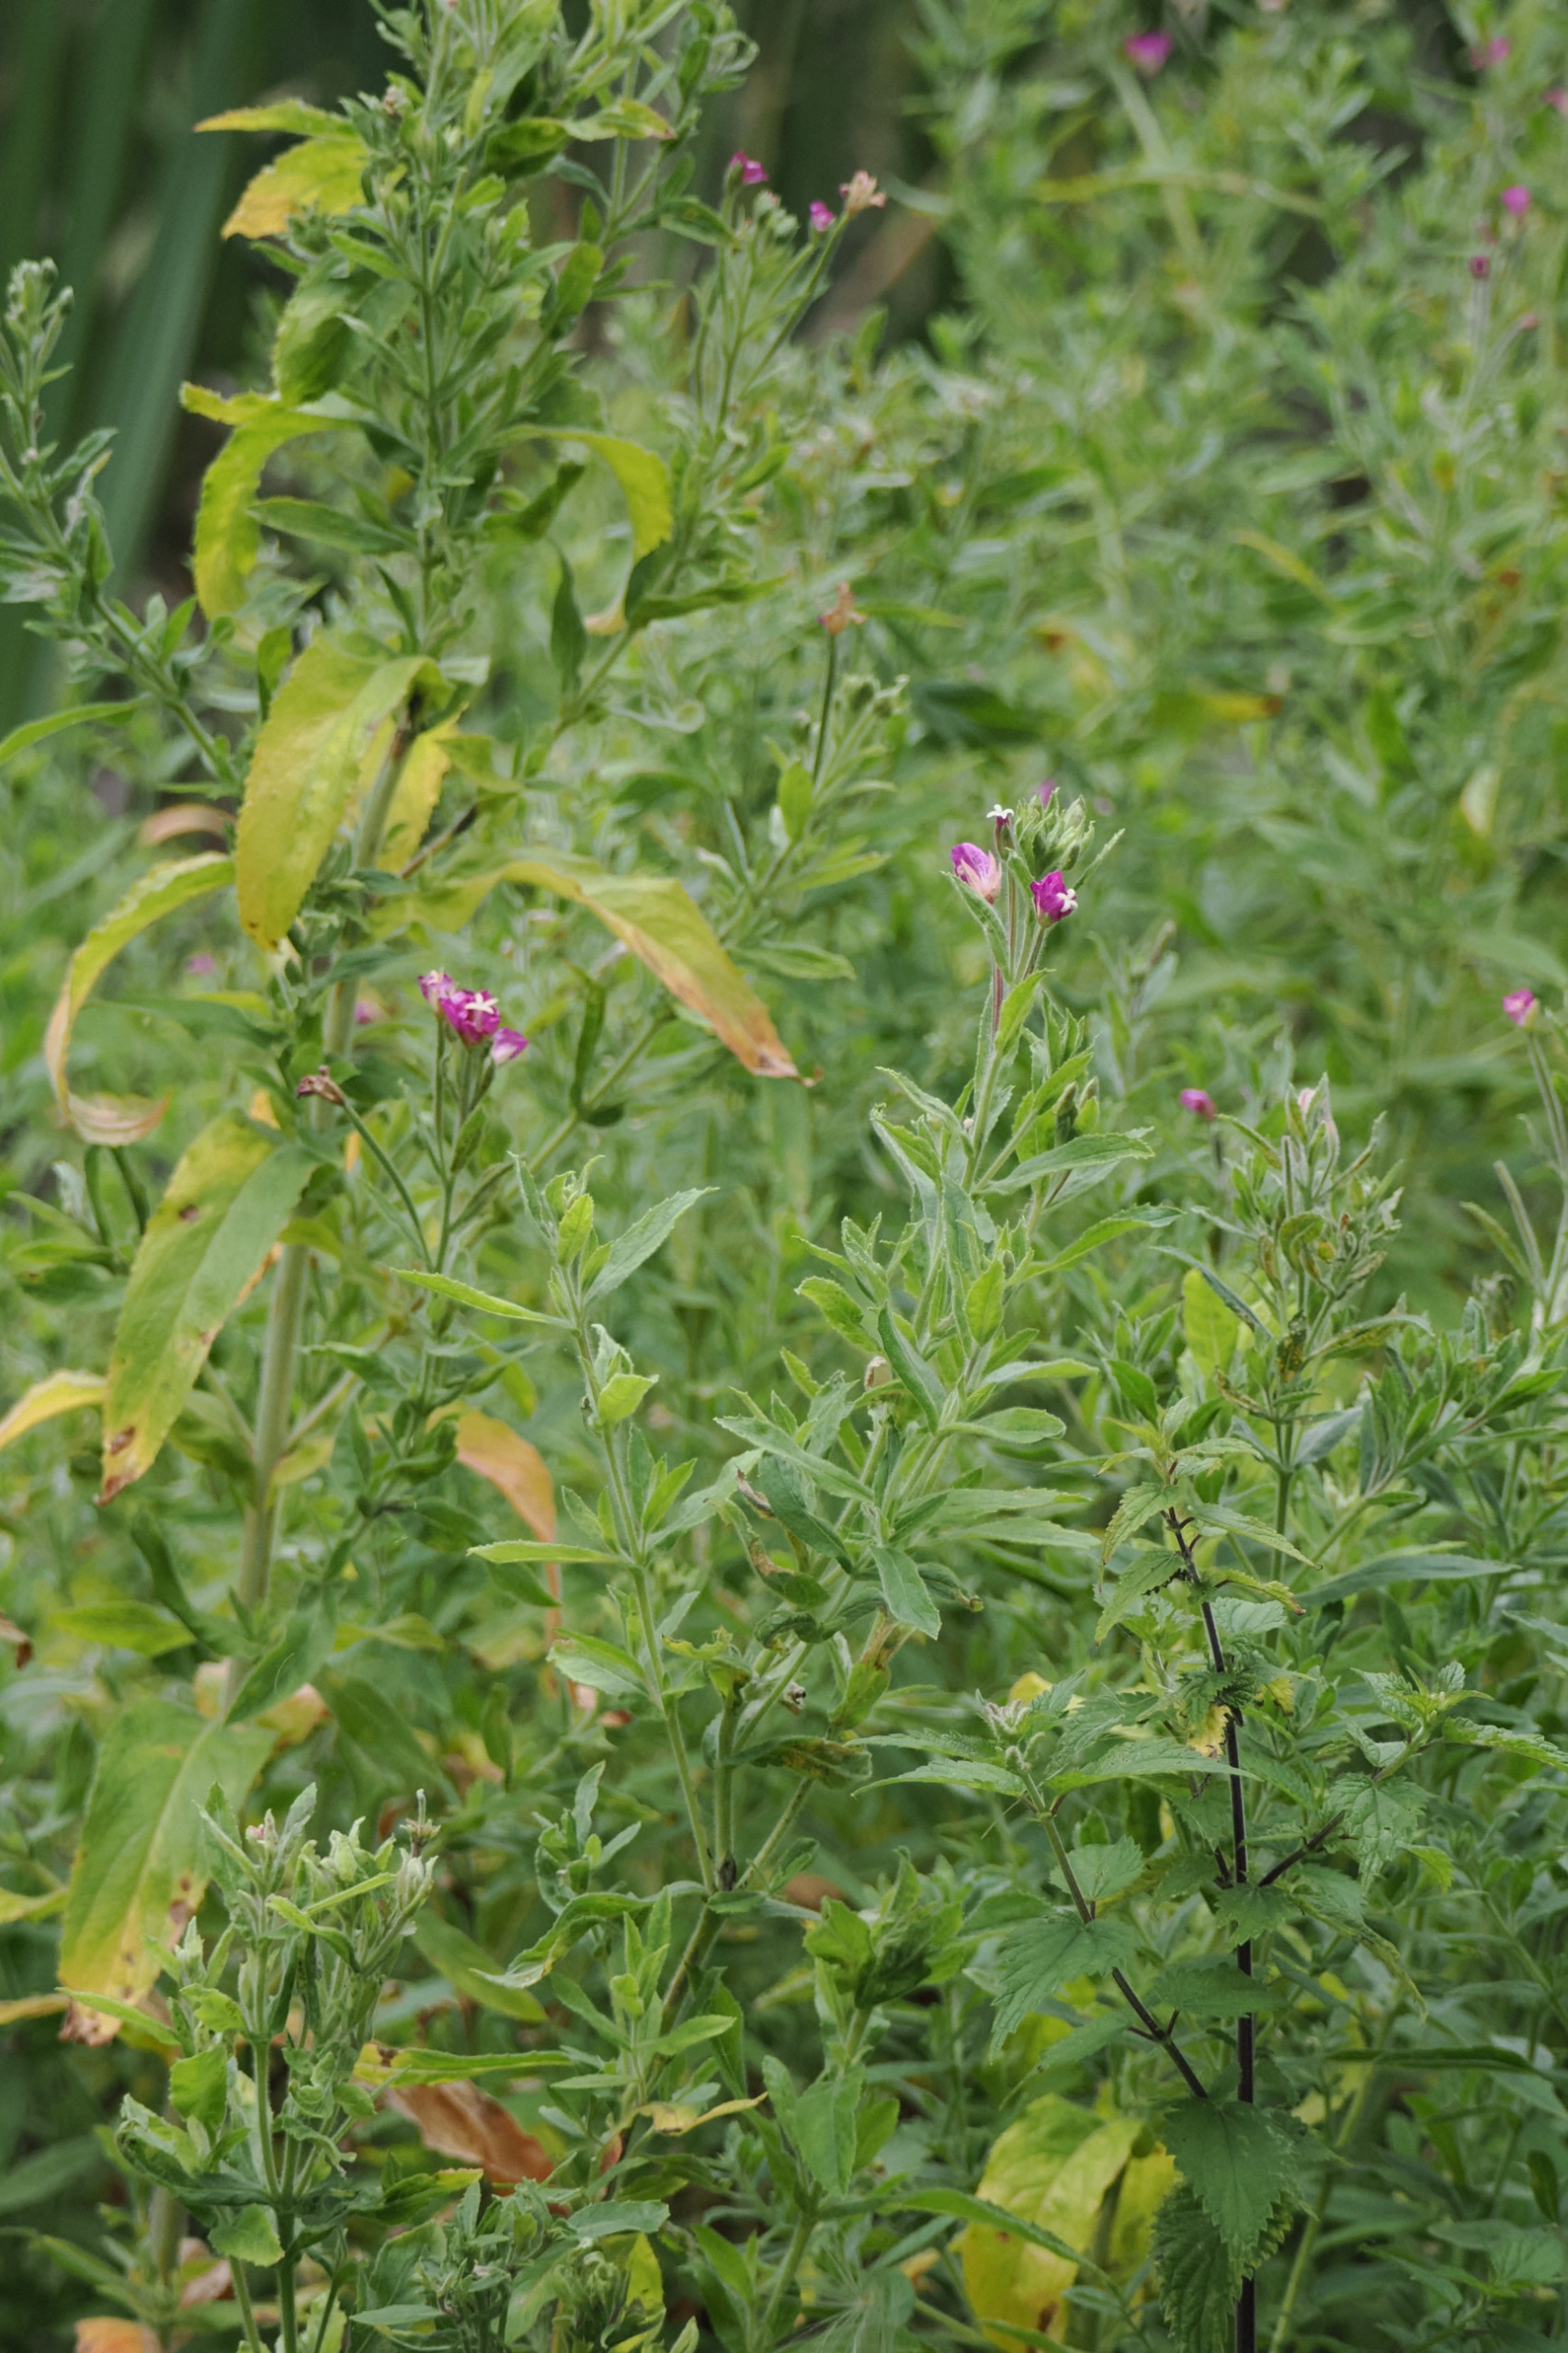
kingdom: Plantae
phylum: Tracheophyta
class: Magnoliopsida
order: Myrtales
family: Onagraceae
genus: Epilobium
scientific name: Epilobium hirsutum
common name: Lådden dueurt
